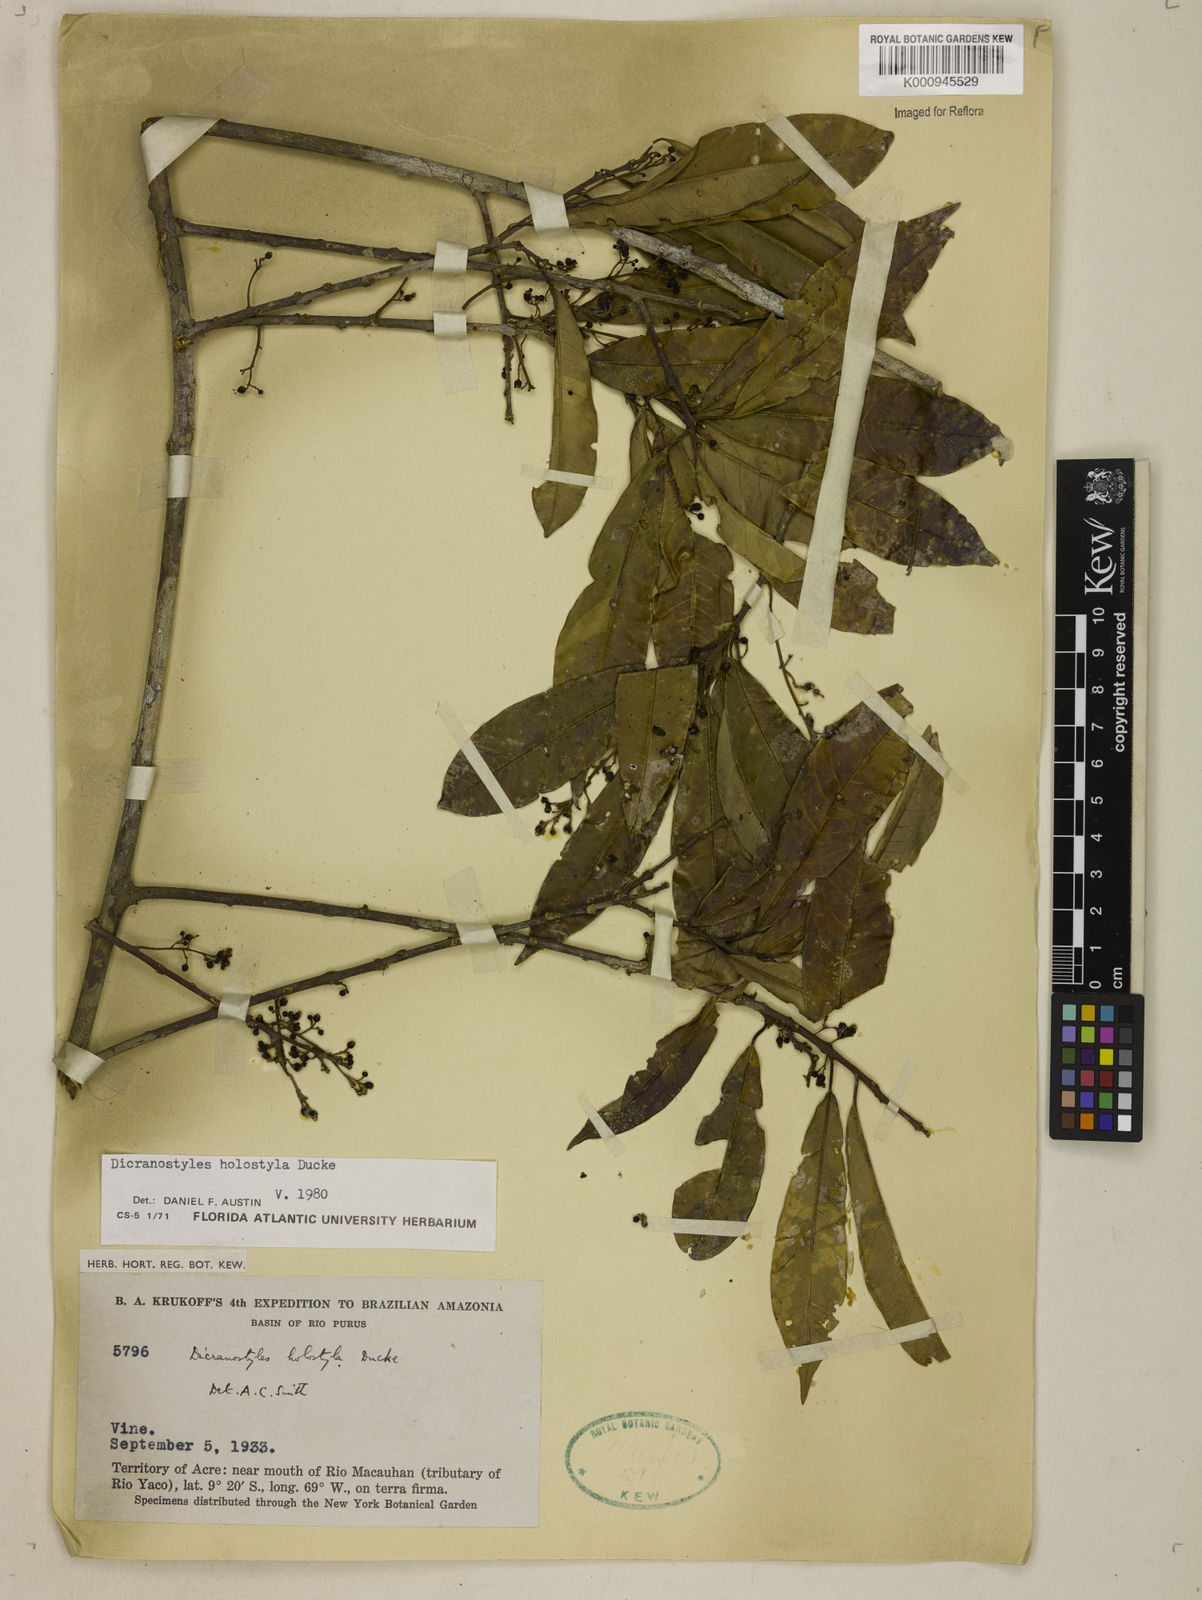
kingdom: Plantae
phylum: Tracheophyta
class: Magnoliopsida
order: Solanales
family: Convolvulaceae
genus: Dicranostyles
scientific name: Dicranostyles holostyla
